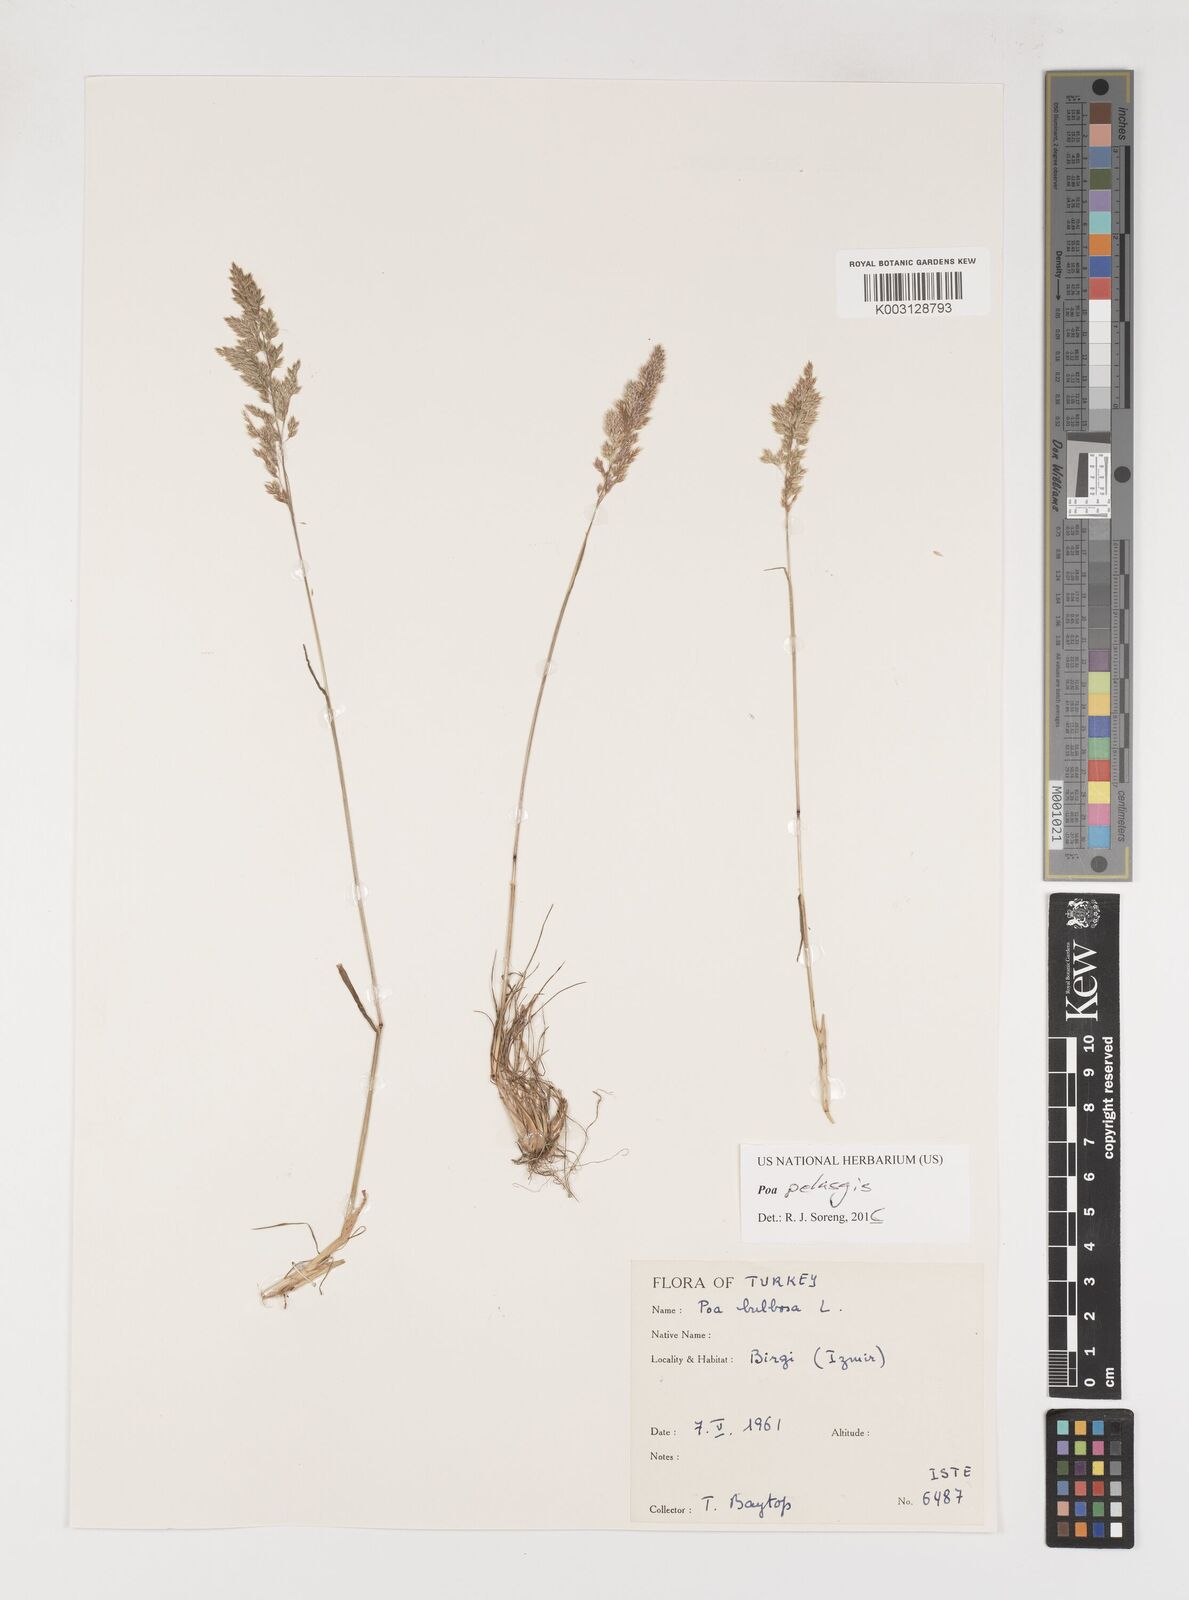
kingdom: Plantae
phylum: Tracheophyta
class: Liliopsida
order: Poales
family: Poaceae
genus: Poa
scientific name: Poa iconia
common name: Konya bluegrass
